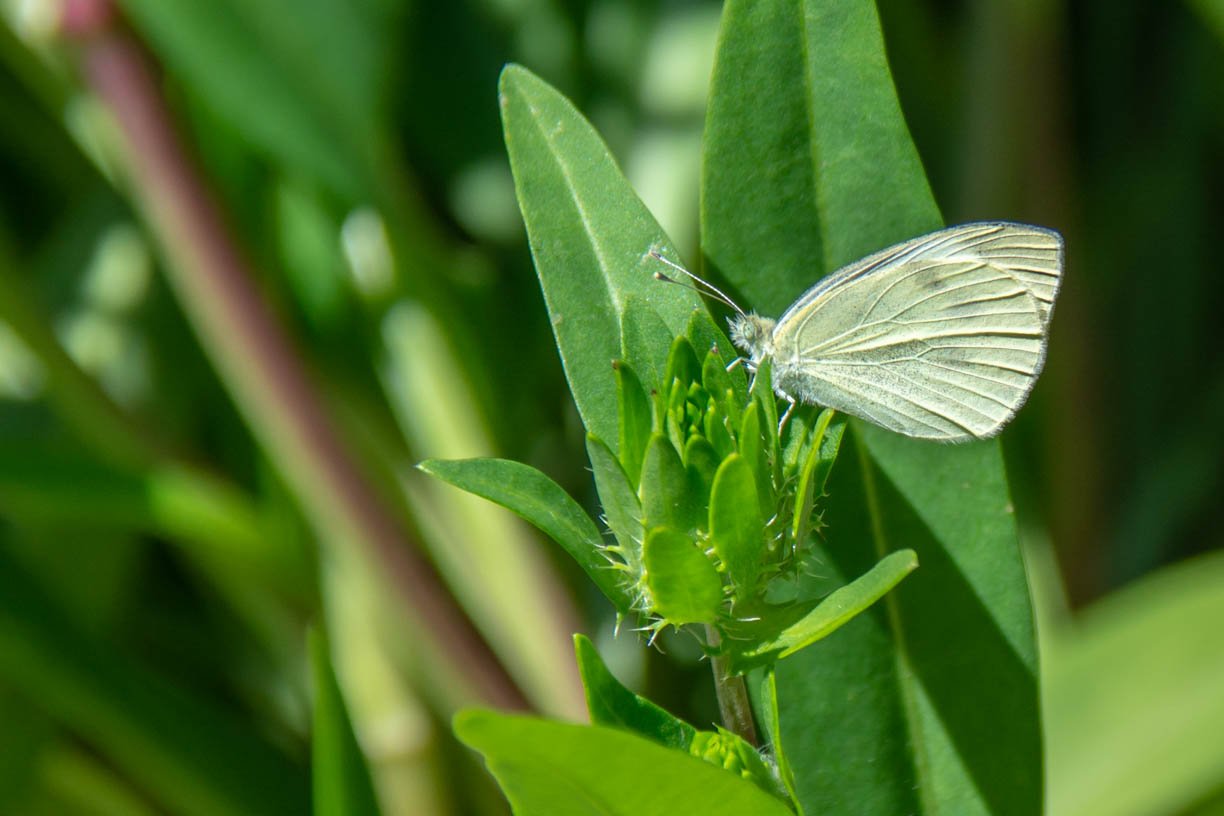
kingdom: Animalia
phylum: Arthropoda
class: Insecta
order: Lepidoptera
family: Pieridae
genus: Pieris
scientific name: Pieris rapae
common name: Cabbage White
